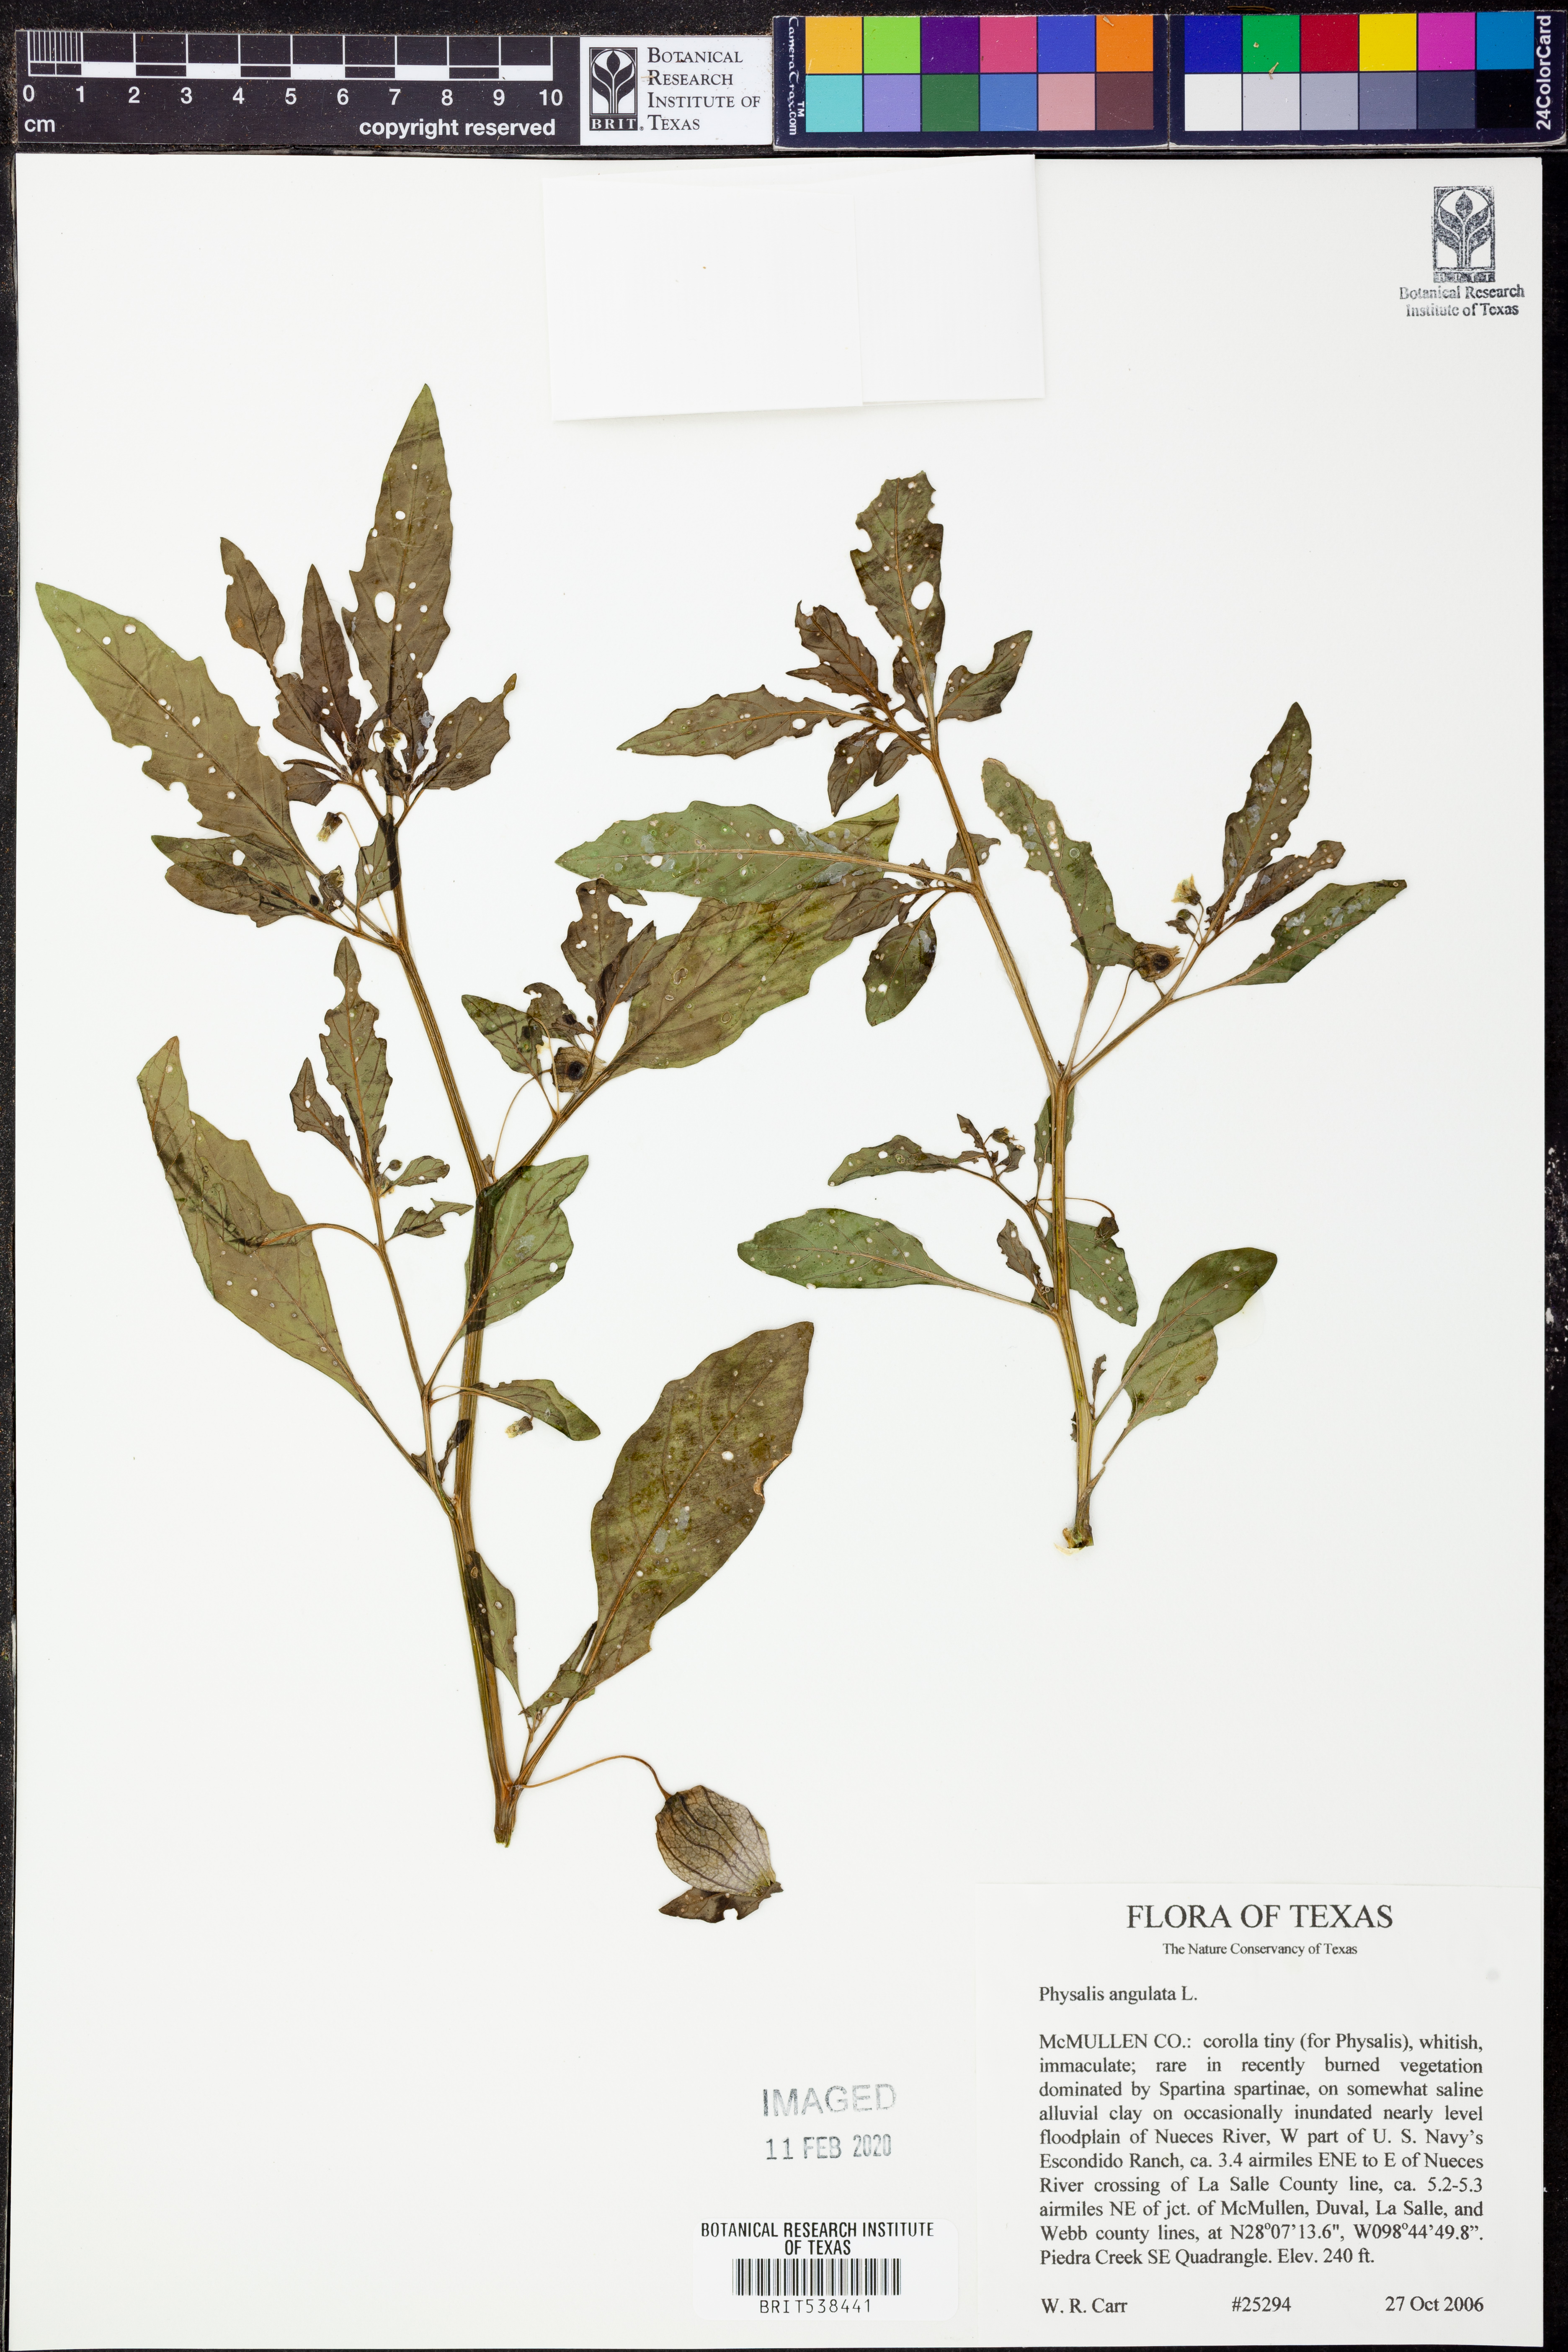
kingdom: Plantae
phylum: Tracheophyta
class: Magnoliopsida
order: Solanales
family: Solanaceae
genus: Physalis
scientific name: Physalis angulata
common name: Angular winter-cherry
